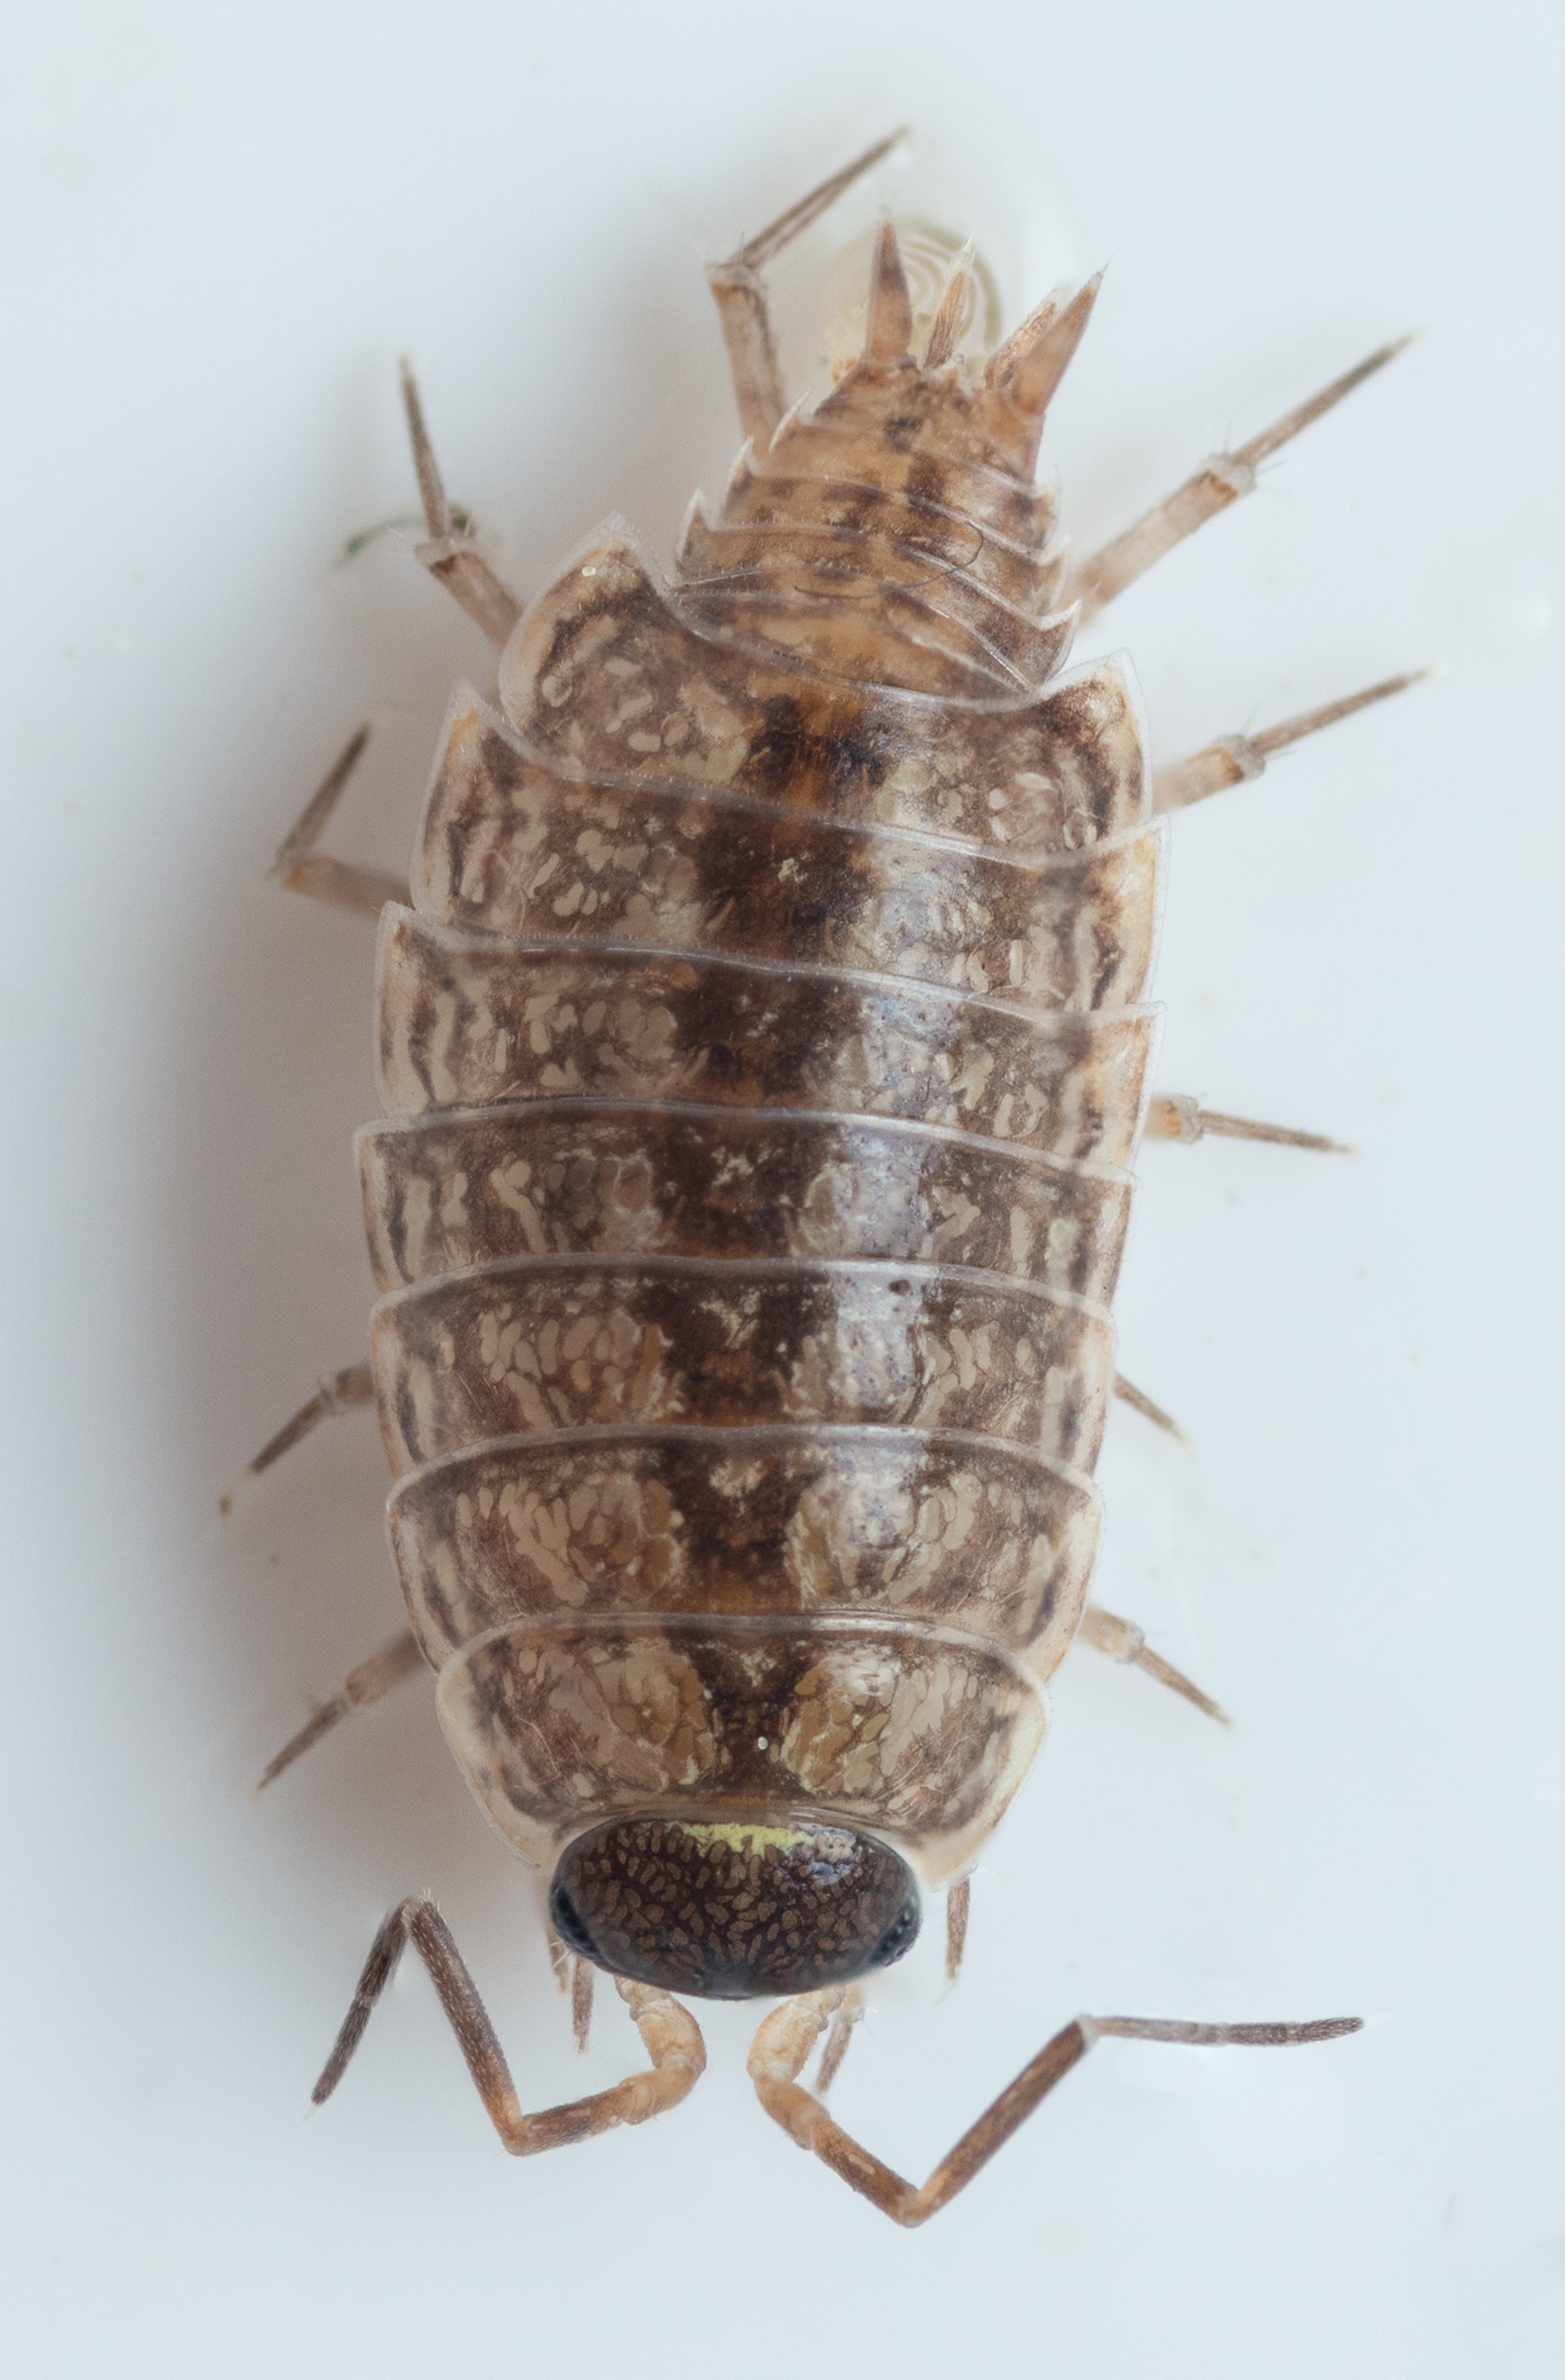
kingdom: Animalia
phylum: Arthropoda
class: Malacostraca
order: Isopoda
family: Philosciidae
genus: Philoscia
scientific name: Philoscia muscorum
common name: Langbenet bænkebider
